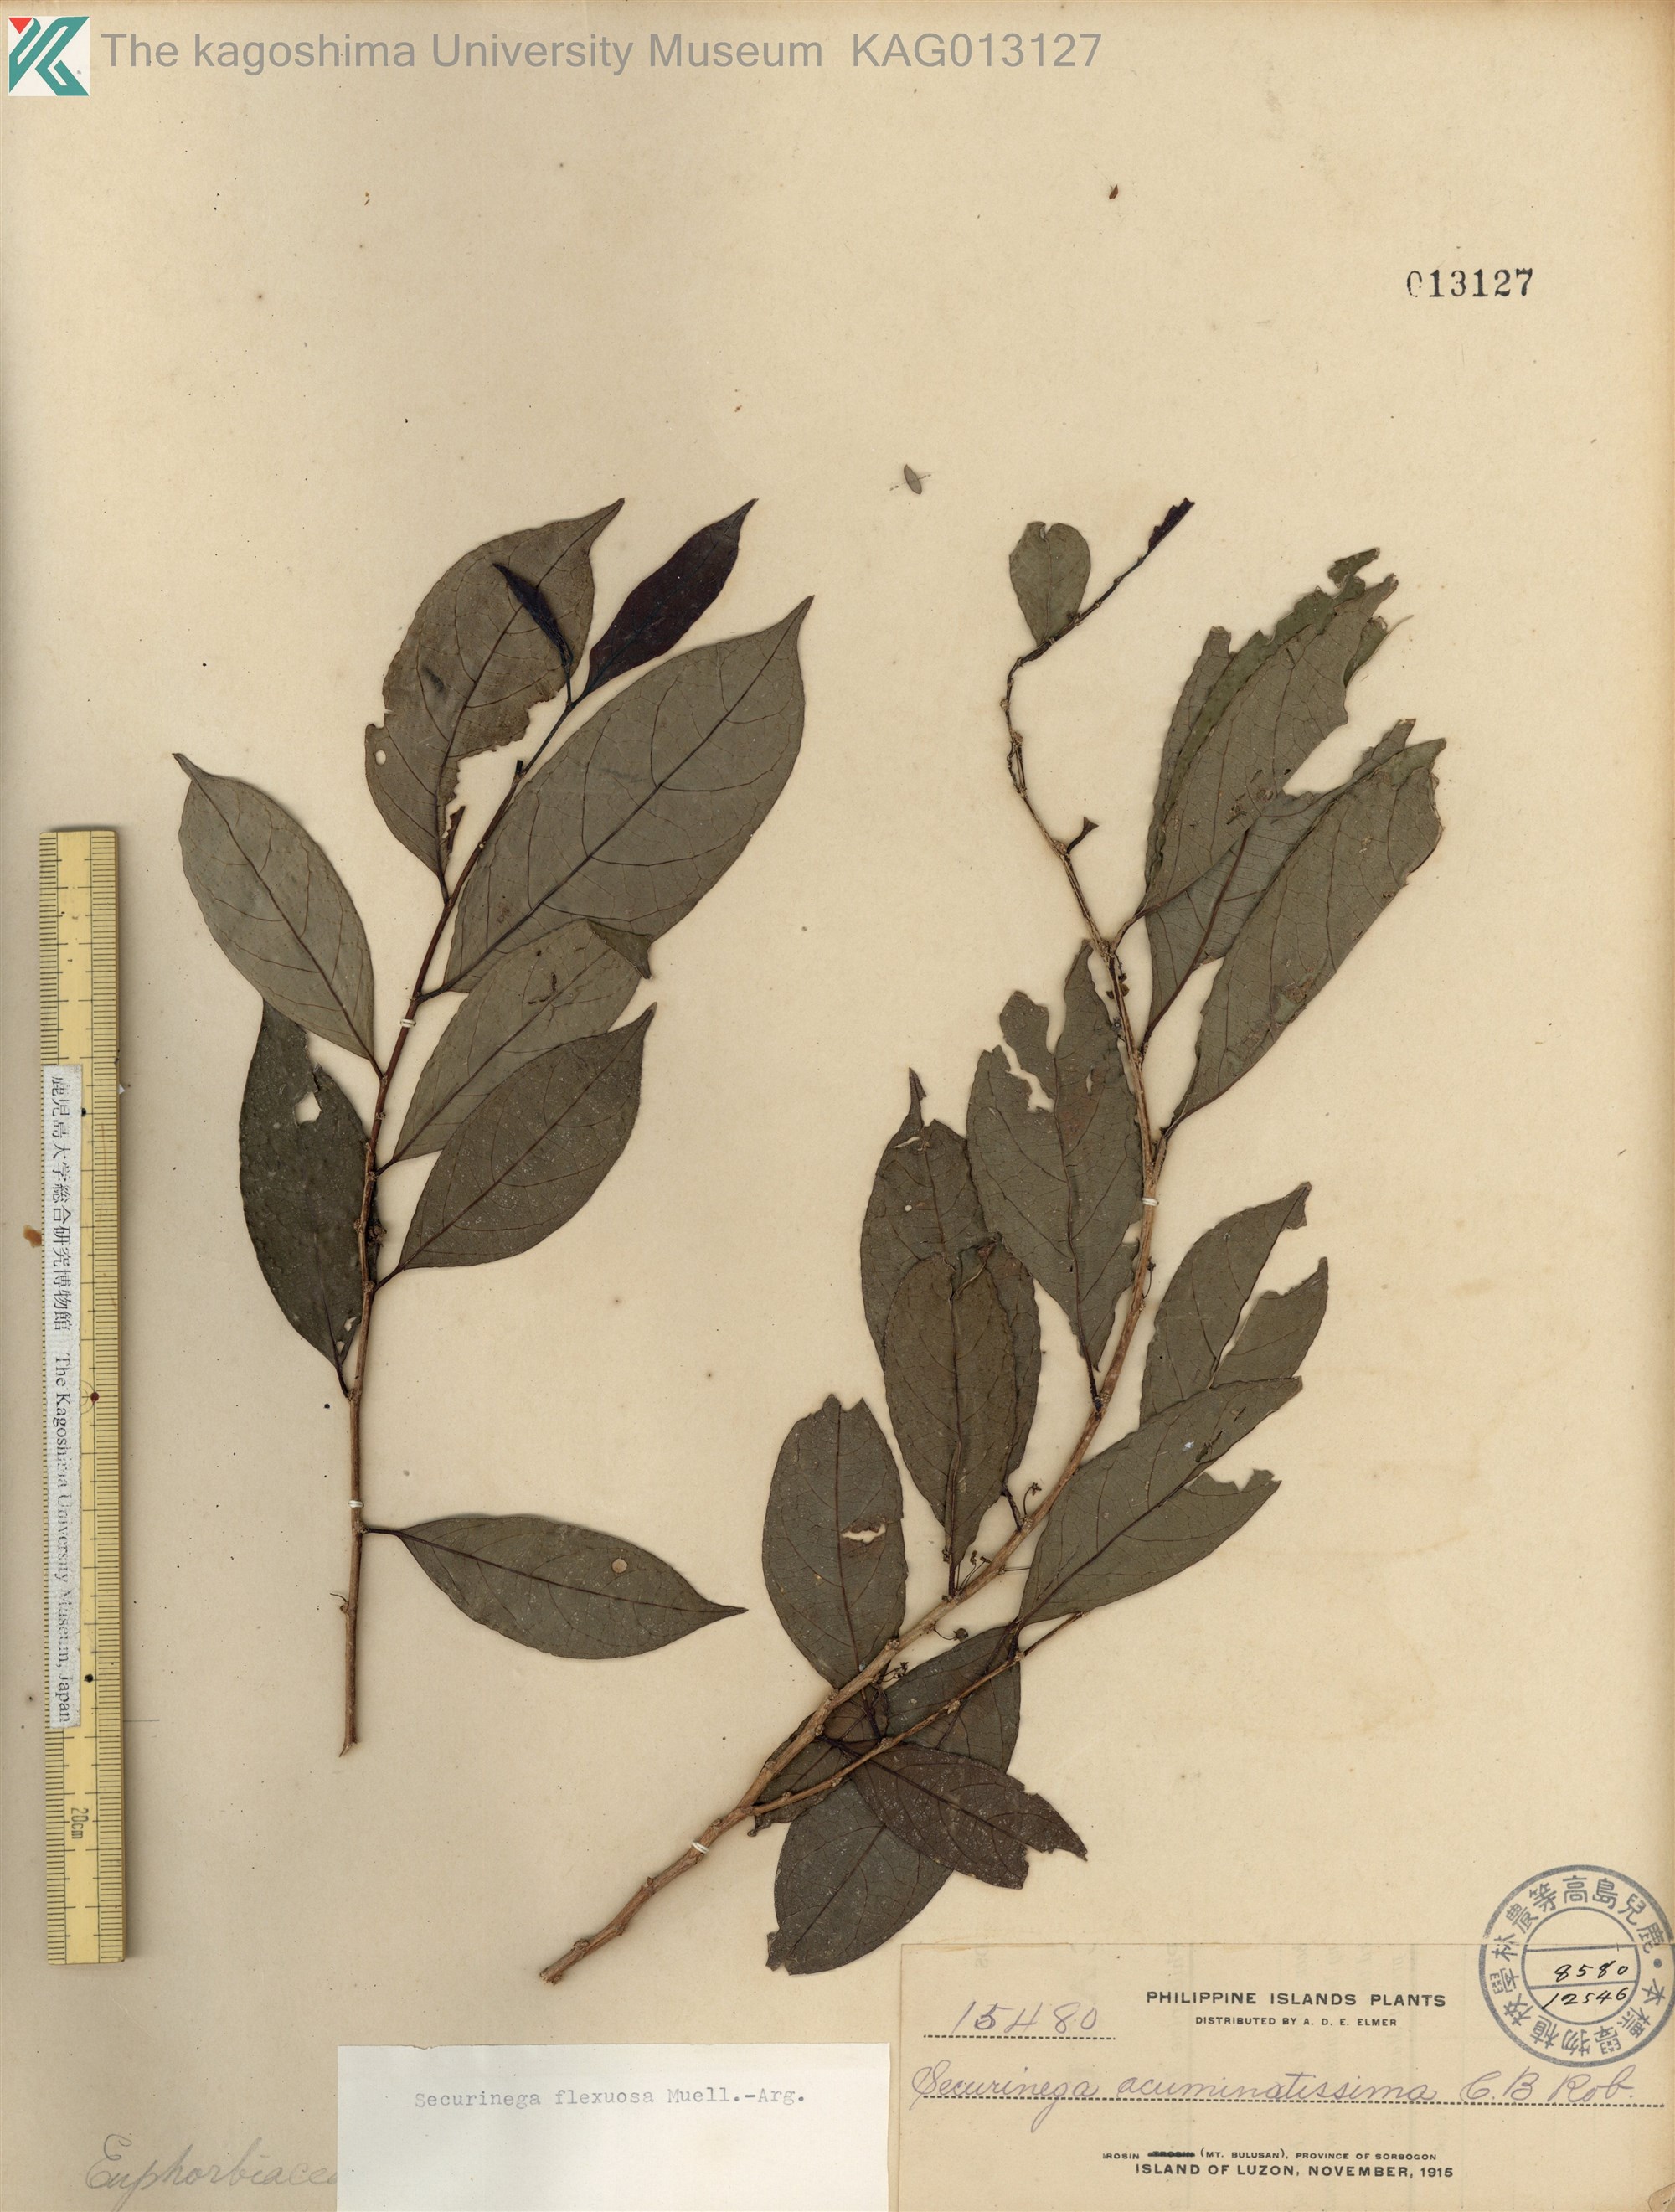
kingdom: Plantae
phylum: Tracheophyta
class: Magnoliopsida
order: Malpighiales
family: Phyllanthaceae
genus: Flueggea
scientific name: Flueggea flexuosa
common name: Poumuli
